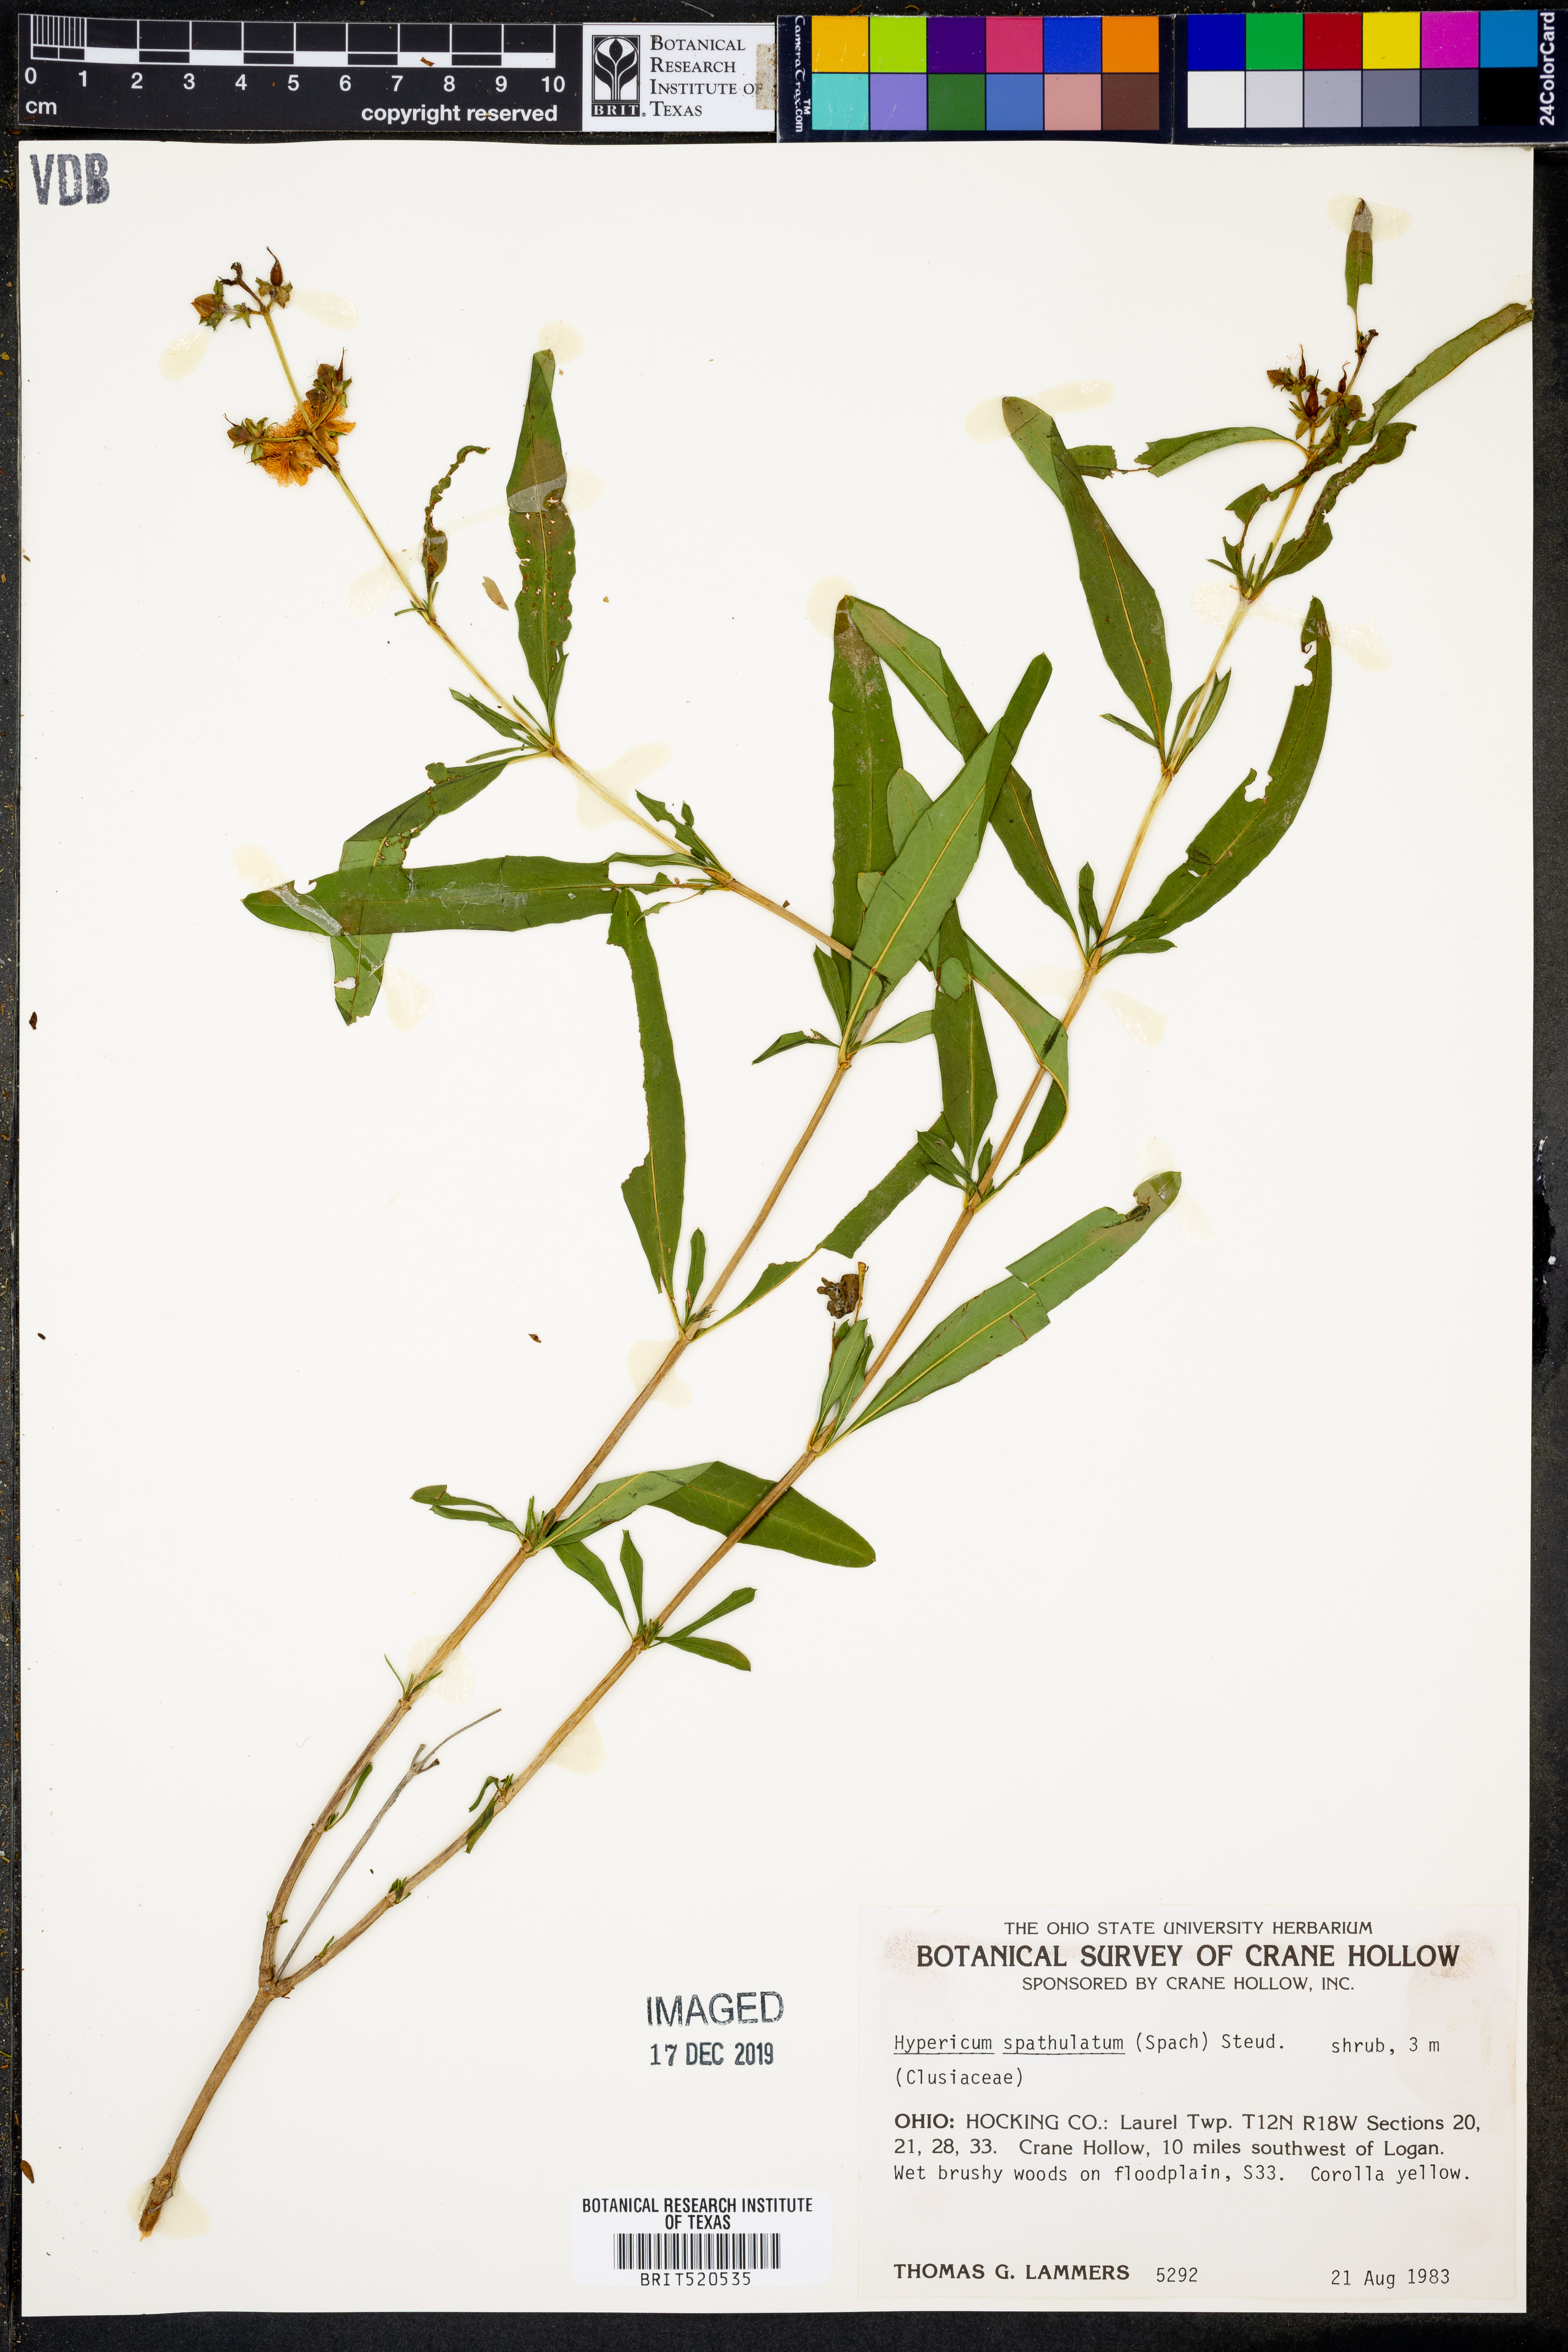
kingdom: Plantae
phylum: Tracheophyta
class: Magnoliopsida
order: Malpighiales
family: Hypericaceae
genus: Hypericum
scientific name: Hypericum
